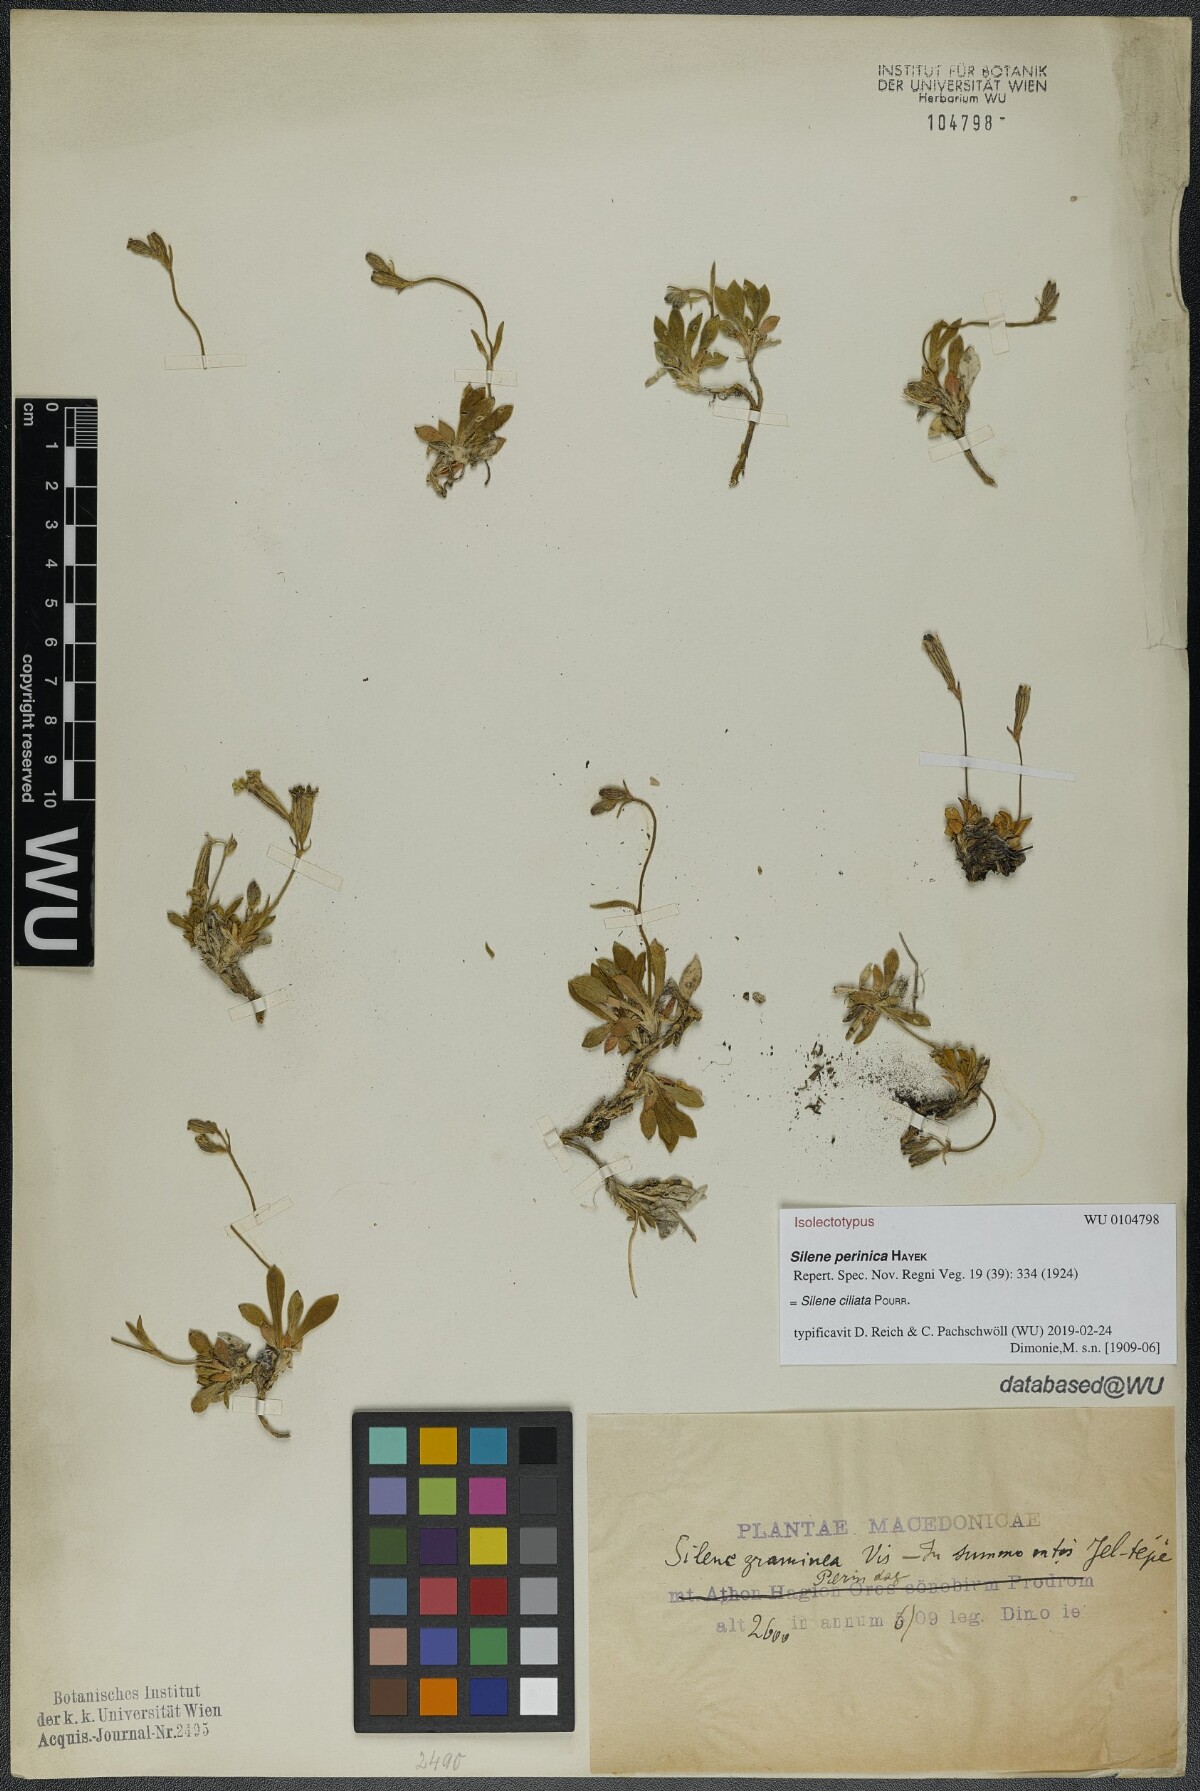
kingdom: Plantae
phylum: Tracheophyta
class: Magnoliopsida
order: Caryophyllales
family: Caryophyllaceae
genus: Silene
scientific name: Silene ciliata
